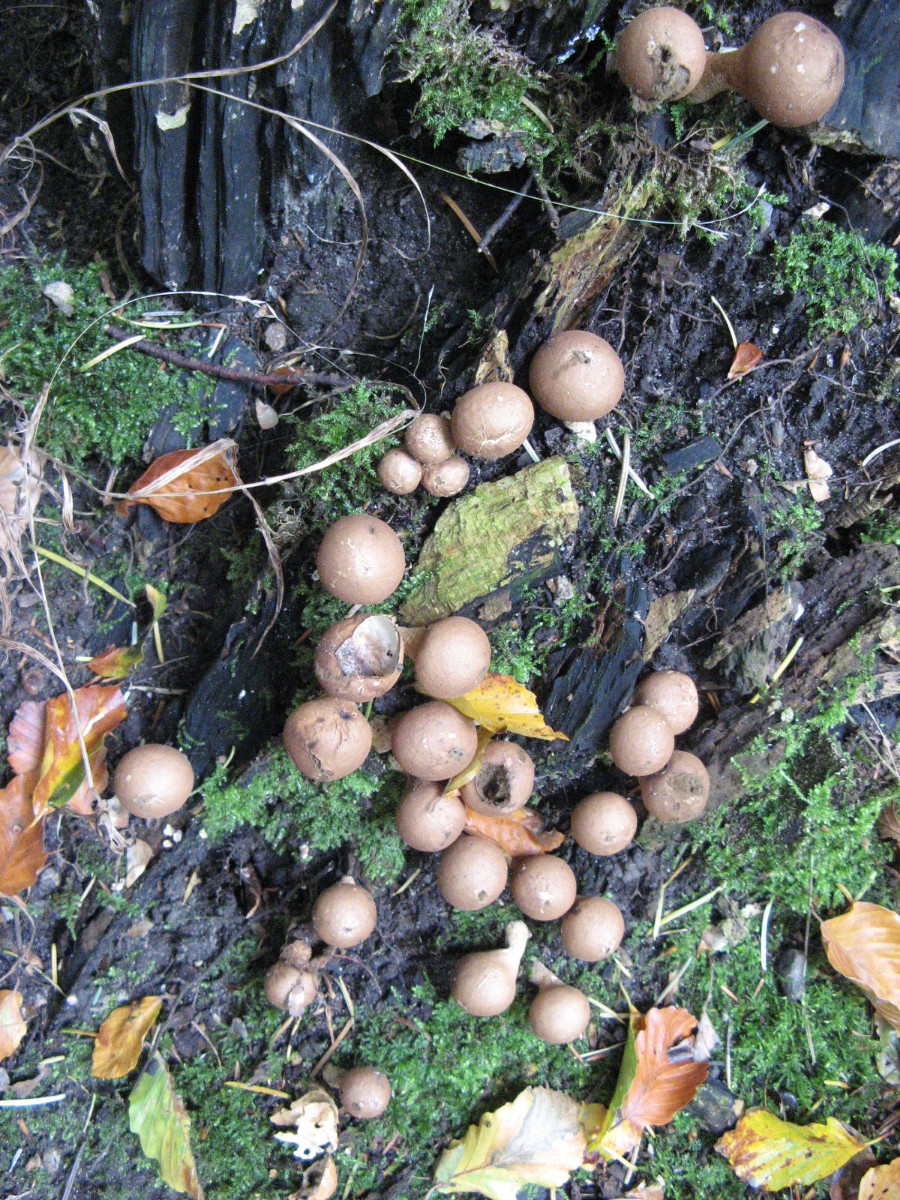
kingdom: Fungi
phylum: Basidiomycota
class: Agaricomycetes
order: Agaricales
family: Lycoperdaceae
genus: Apioperdon
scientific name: Apioperdon pyriforme
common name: pære-støvbold
